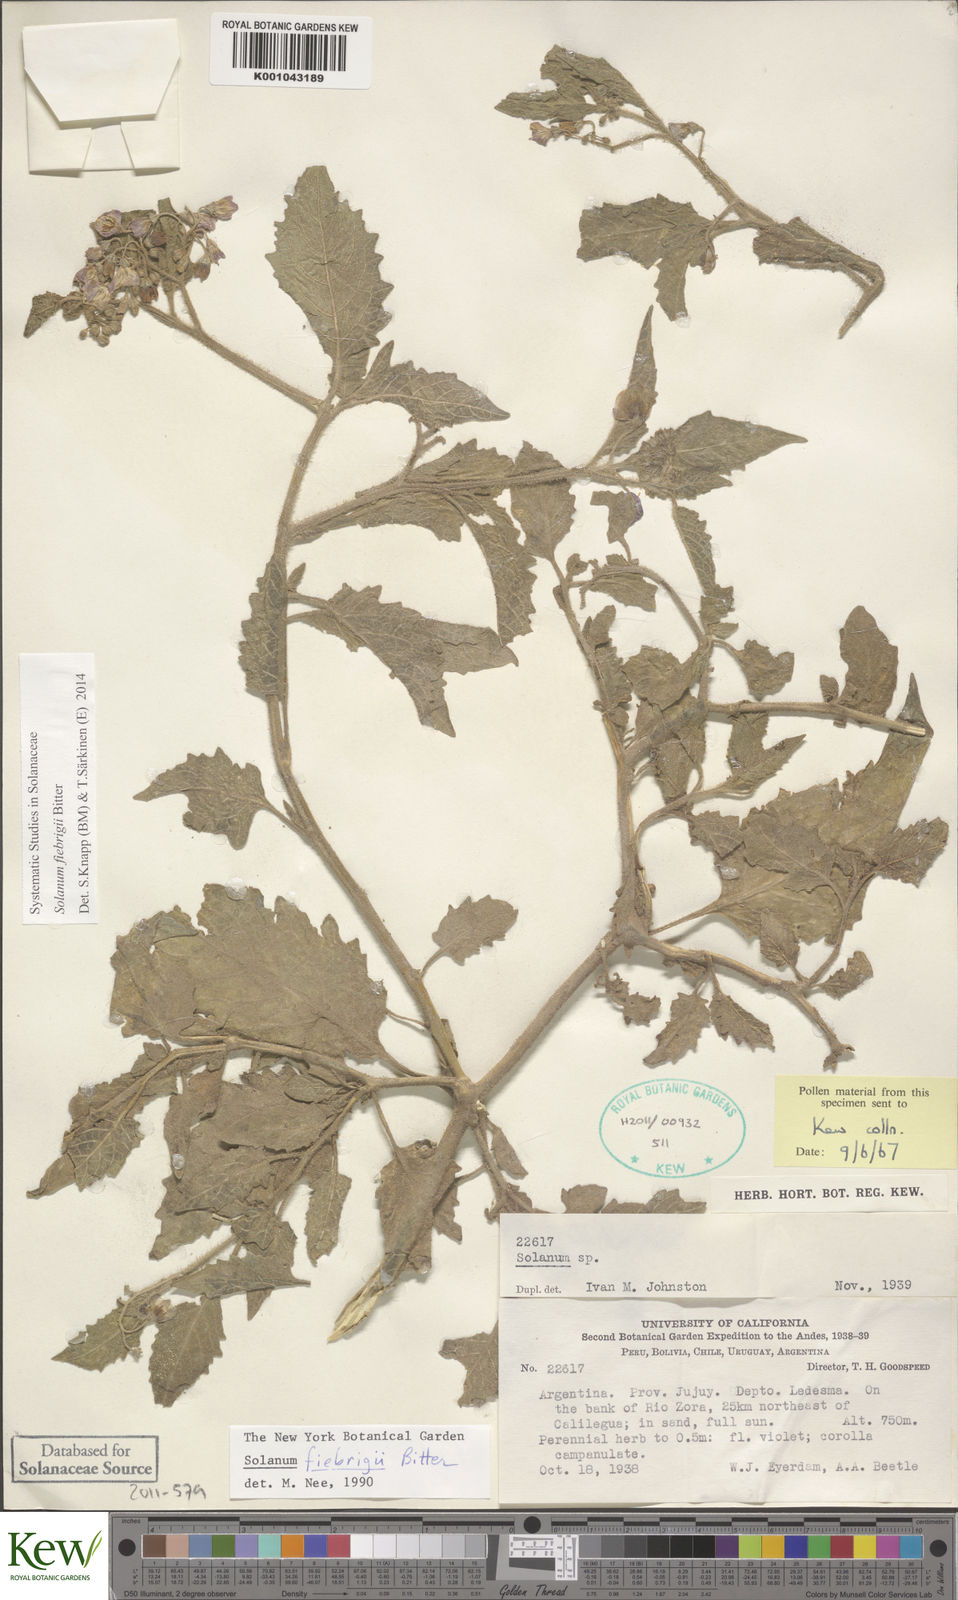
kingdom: Plantae
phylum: Tracheophyta
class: Magnoliopsida
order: Solanales
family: Solanaceae
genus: Solanum
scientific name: Solanum fiebrigii
